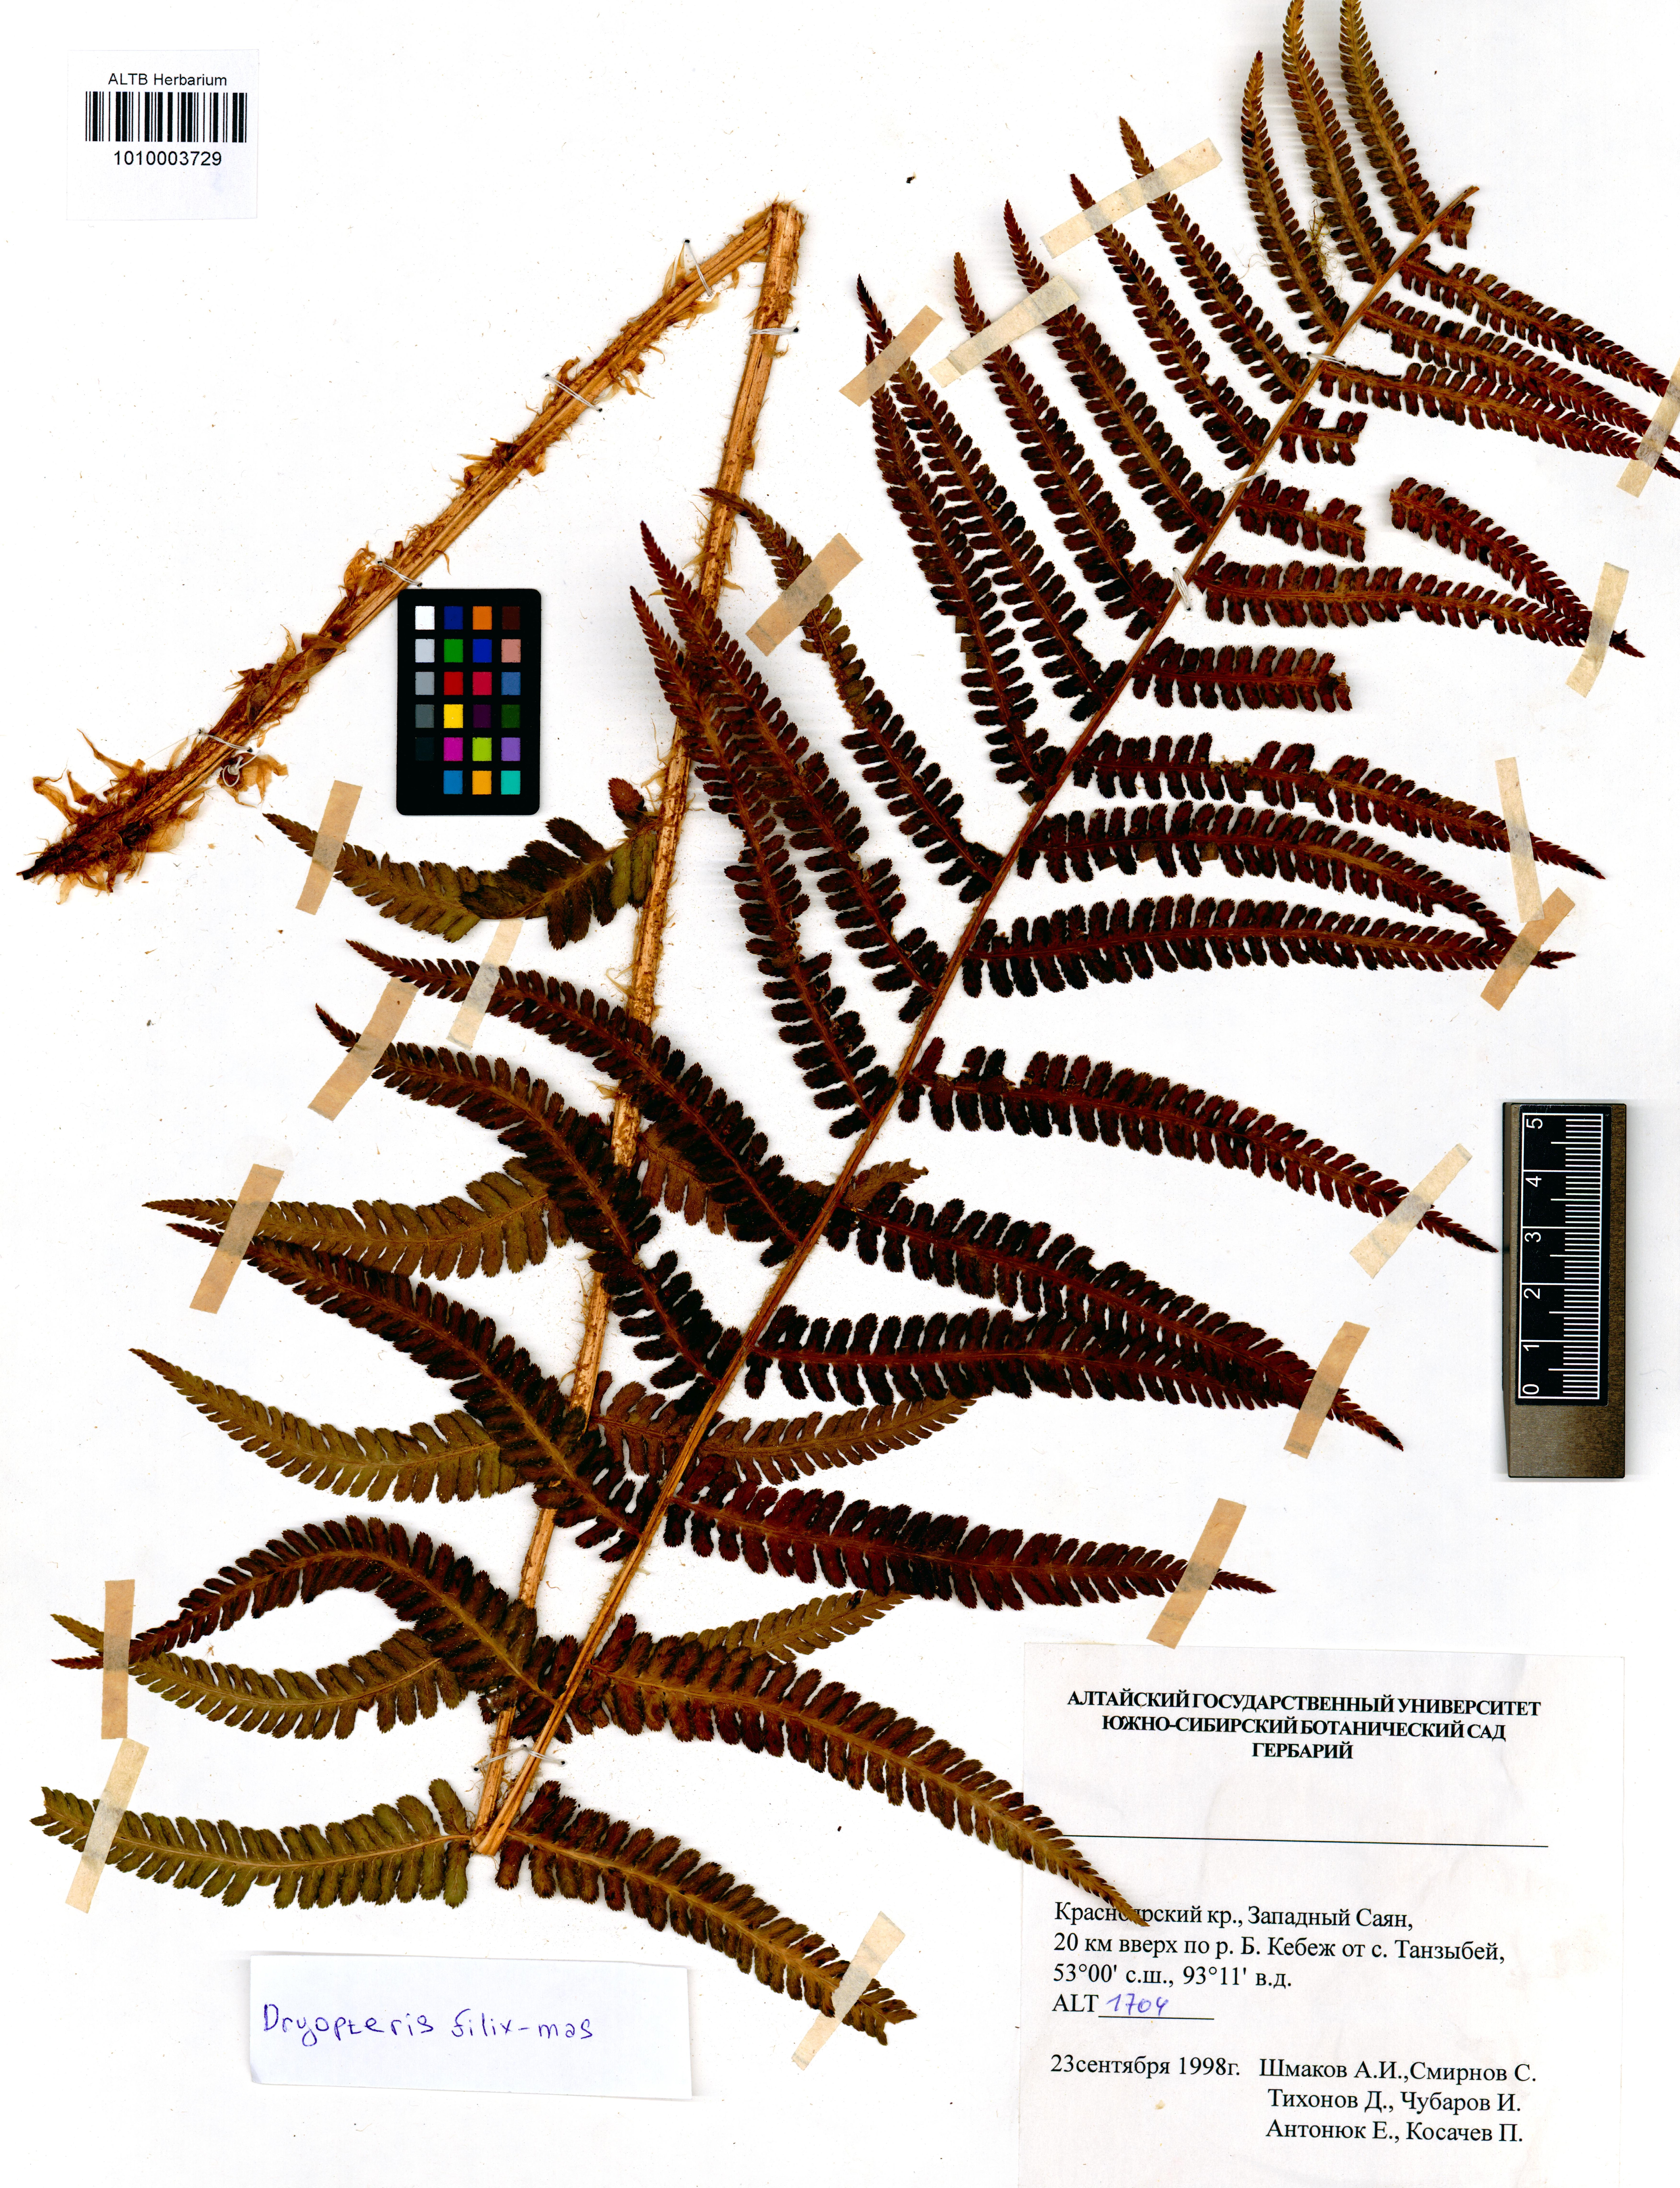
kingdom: Plantae
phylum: Tracheophyta
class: Polypodiopsida
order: Polypodiales
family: Dryopteridaceae
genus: Dryopteris
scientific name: Dryopteris filix-mas
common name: Male fern
